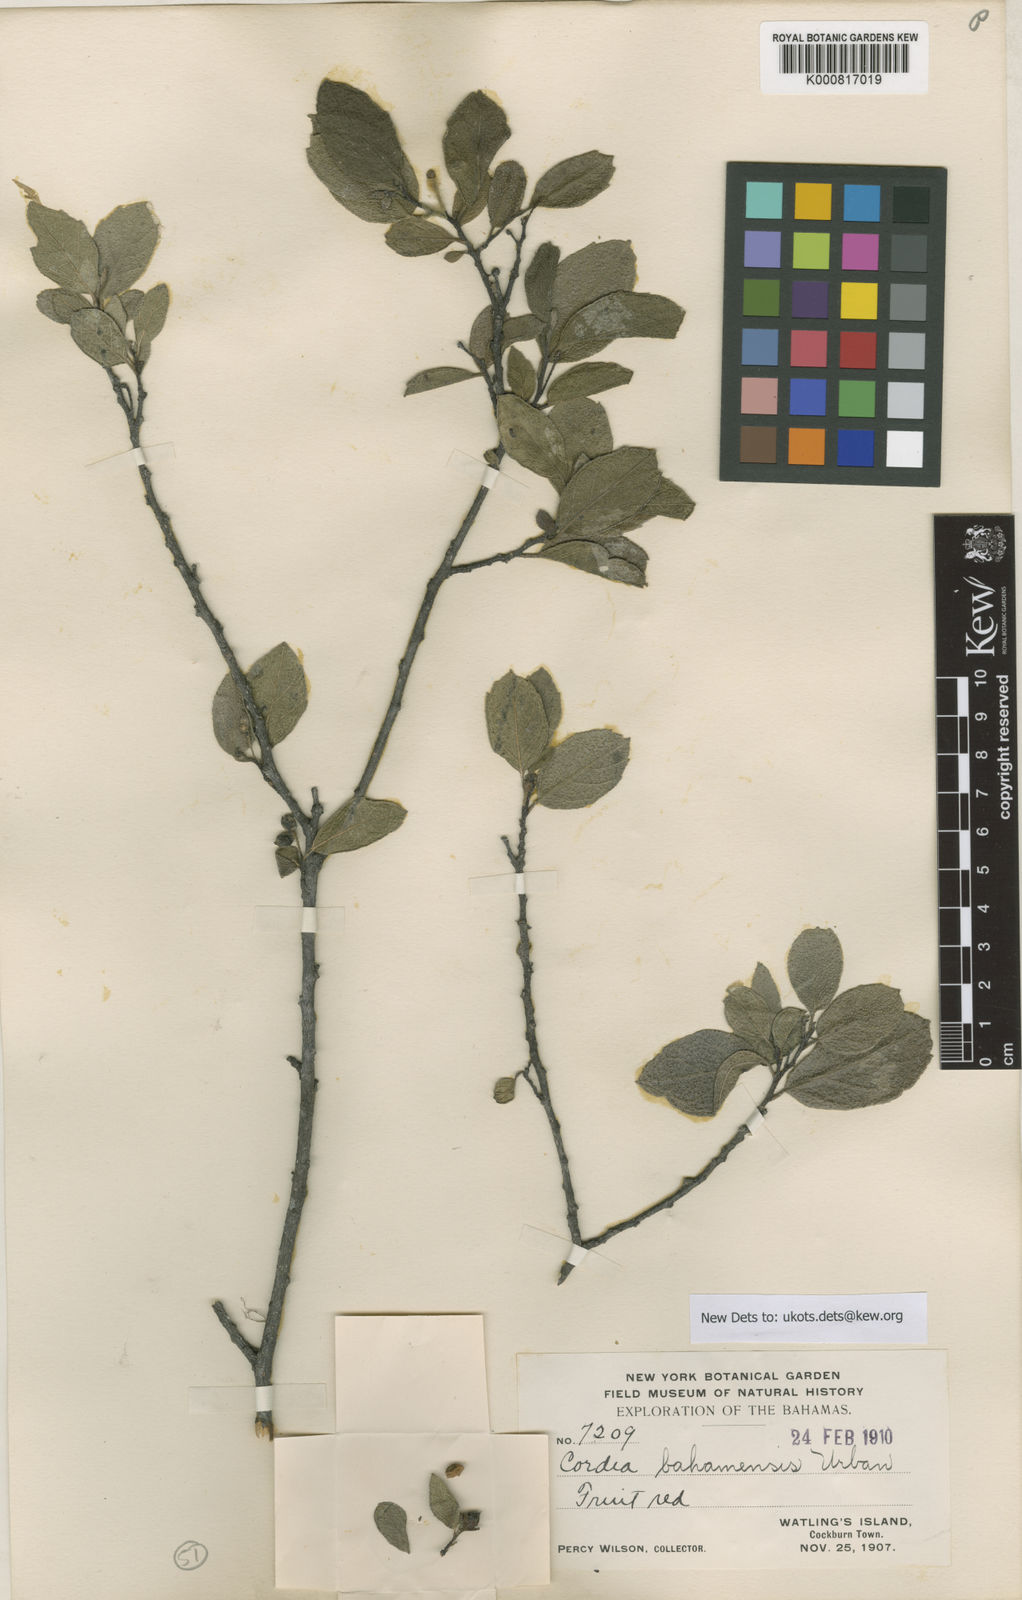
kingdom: Plantae
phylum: Tracheophyta
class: Magnoliopsida
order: Boraginales
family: Cordiaceae
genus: Varronia
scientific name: Varronia bahamensis
